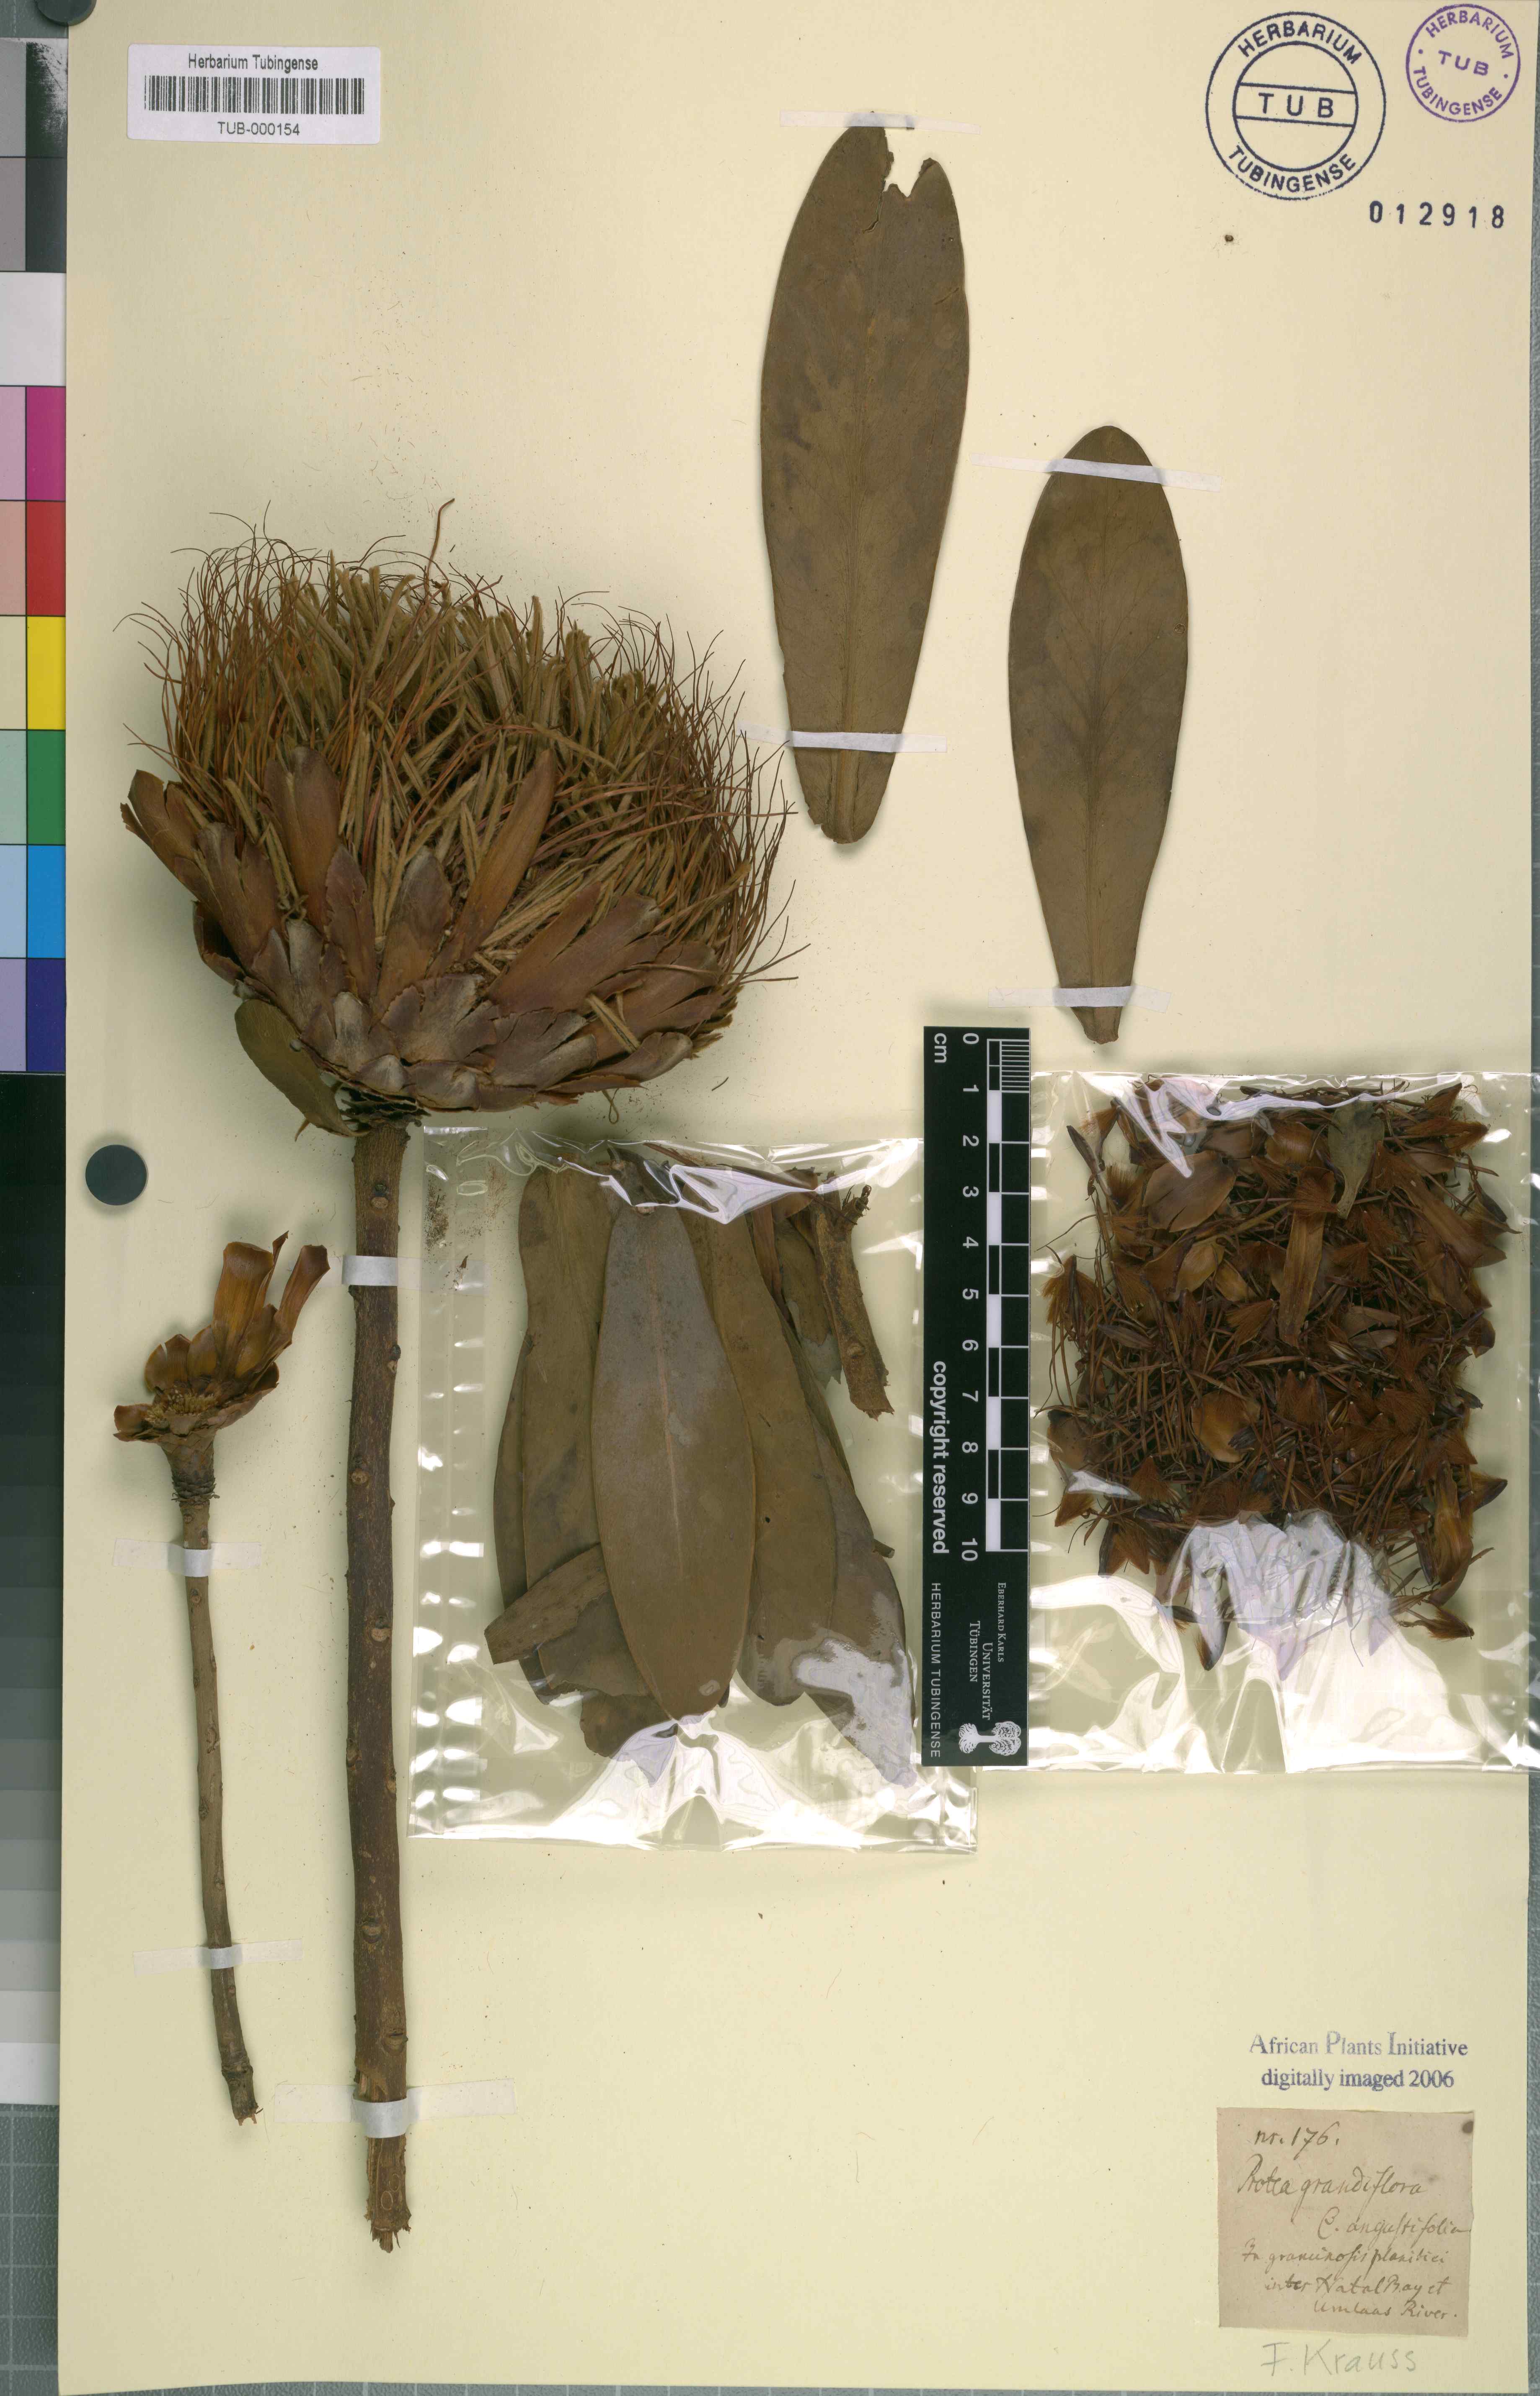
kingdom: Plantae
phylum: Tracheophyta
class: Magnoliopsida
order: Proteales
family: Proteaceae
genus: Protea
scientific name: Protea nitida
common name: Tree protea
